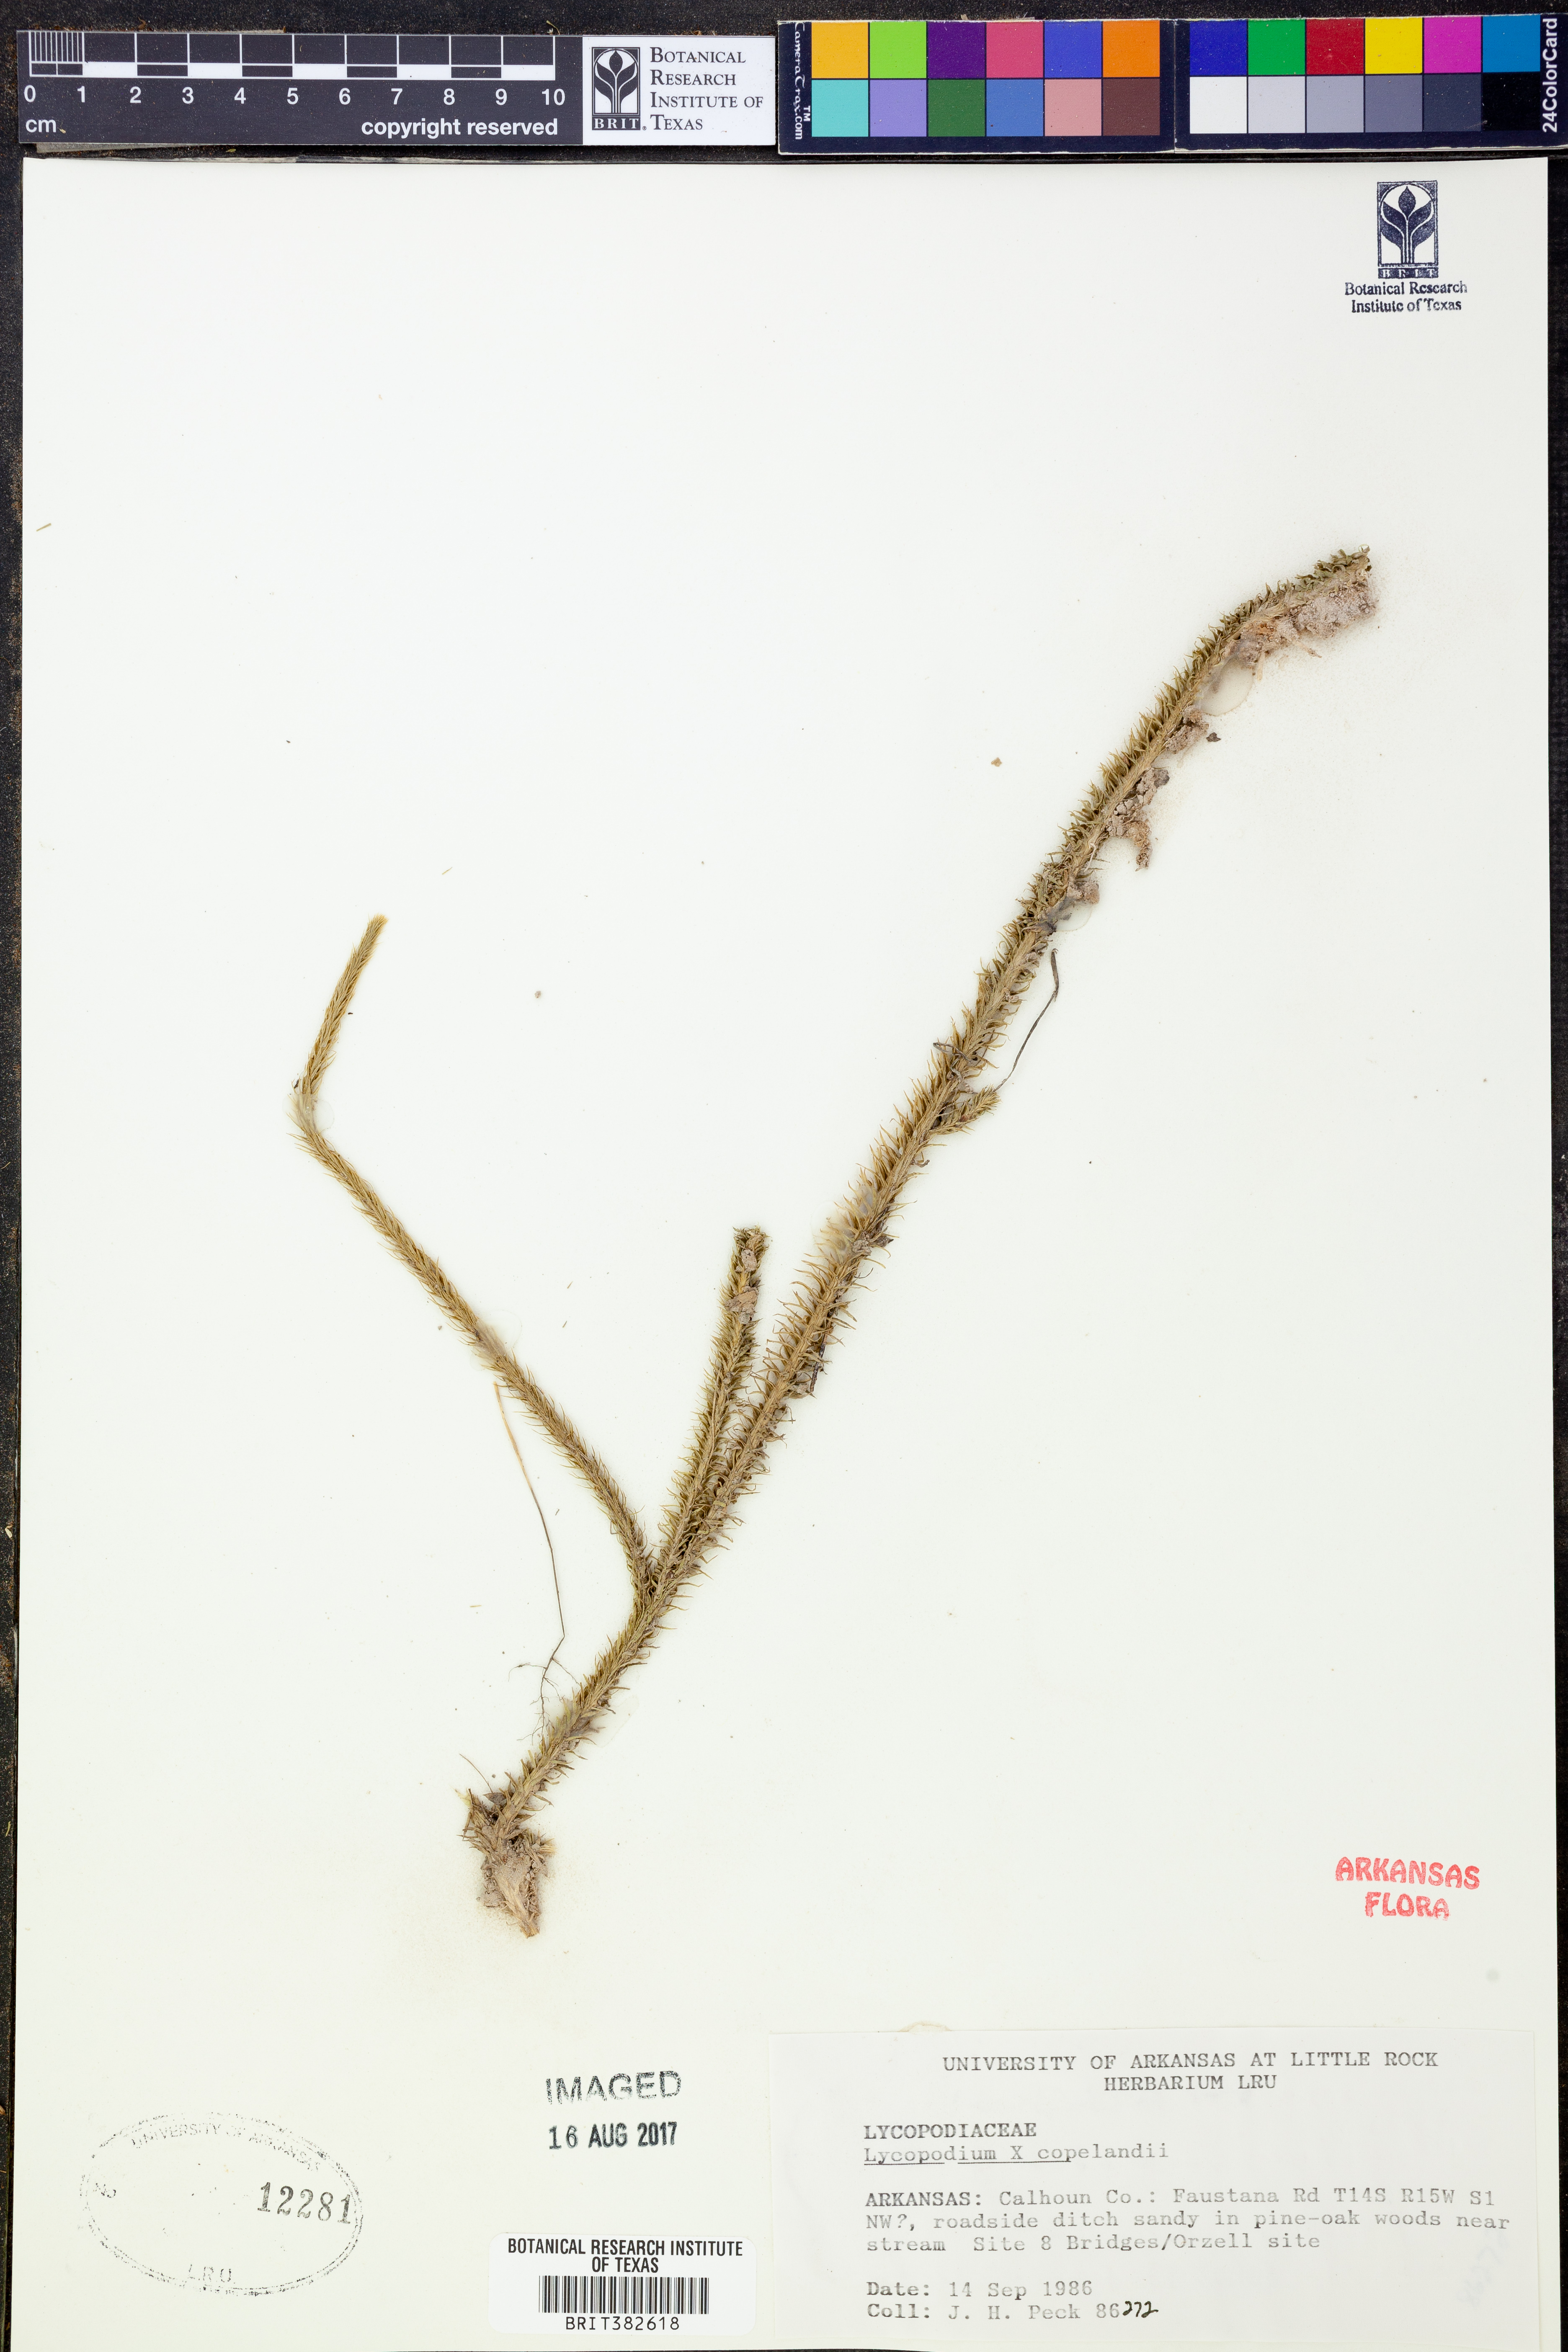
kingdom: Plantae
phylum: Tracheophyta
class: Lycopodiopsida
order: Lycopodiales
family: Lycopodiaceae
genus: Lycopodiella
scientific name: Lycopodiella copelandii
